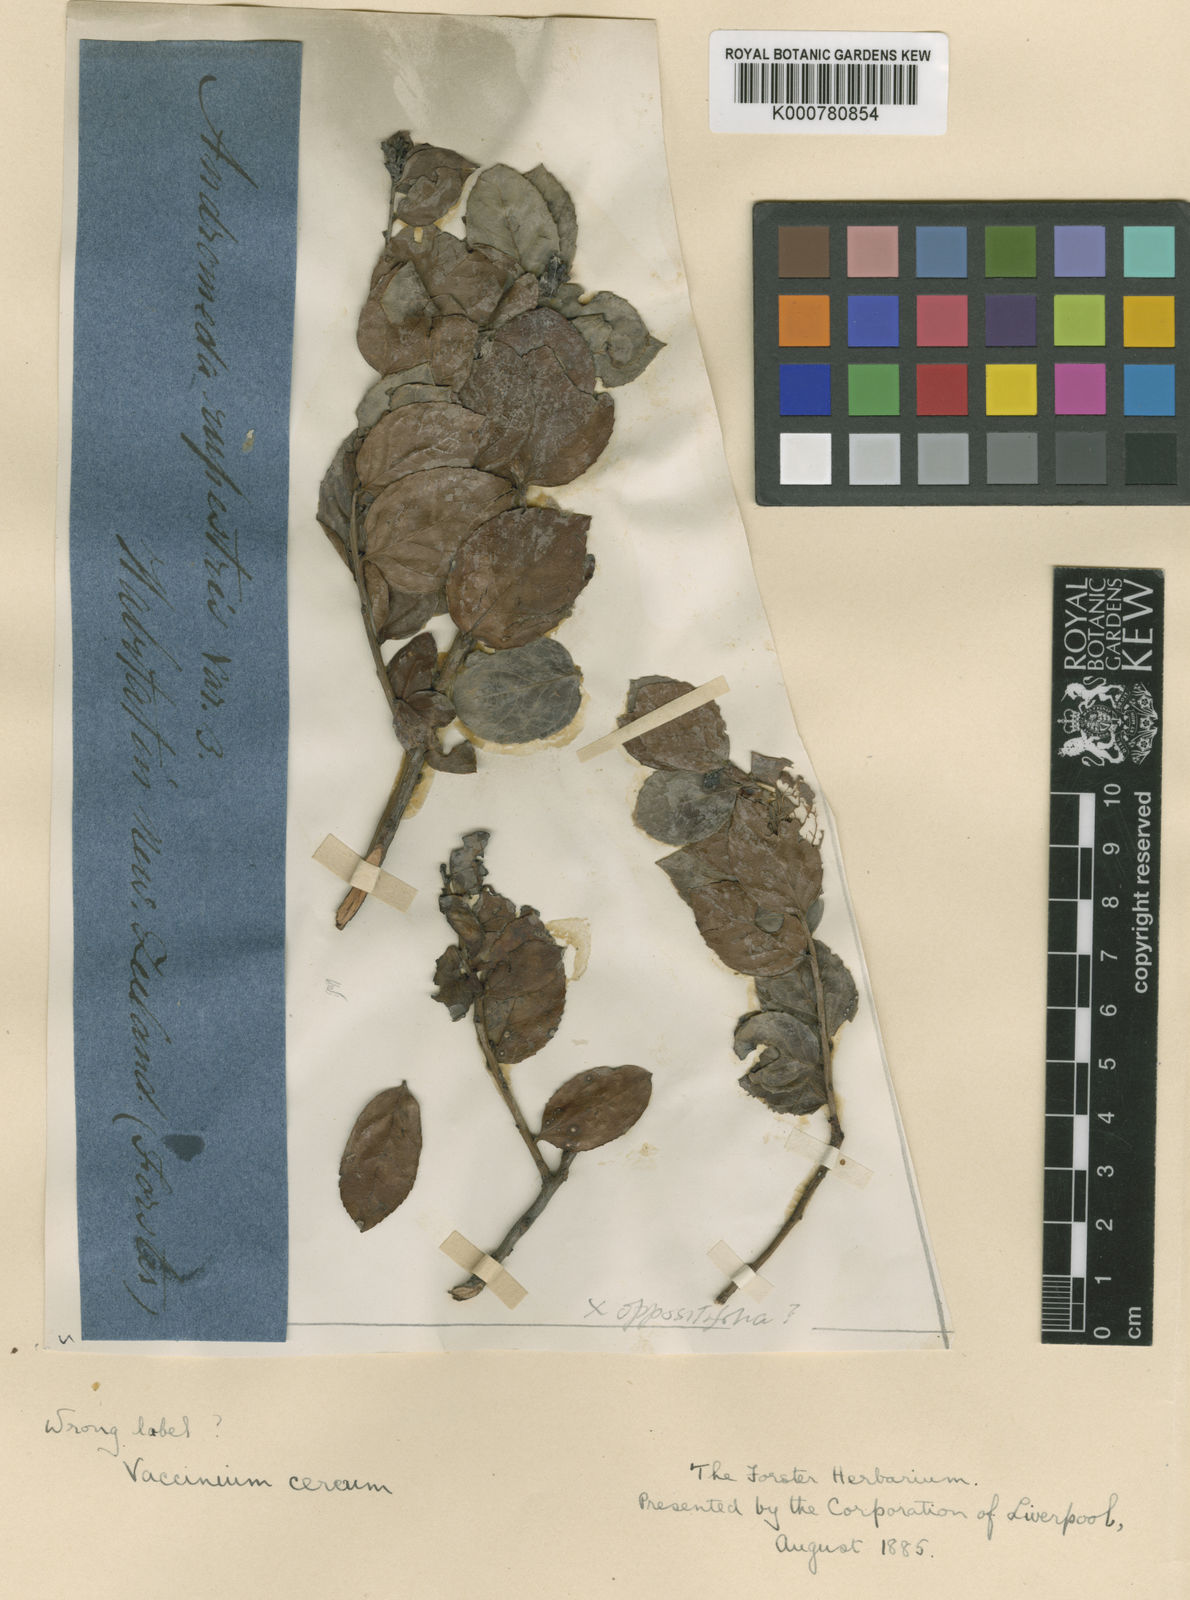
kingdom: Plantae
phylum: Tracheophyta
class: Magnoliopsida
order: Ericales
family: Ericaceae
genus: Vaccinium
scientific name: Vaccinium cereum
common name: East polynesian blueberry
